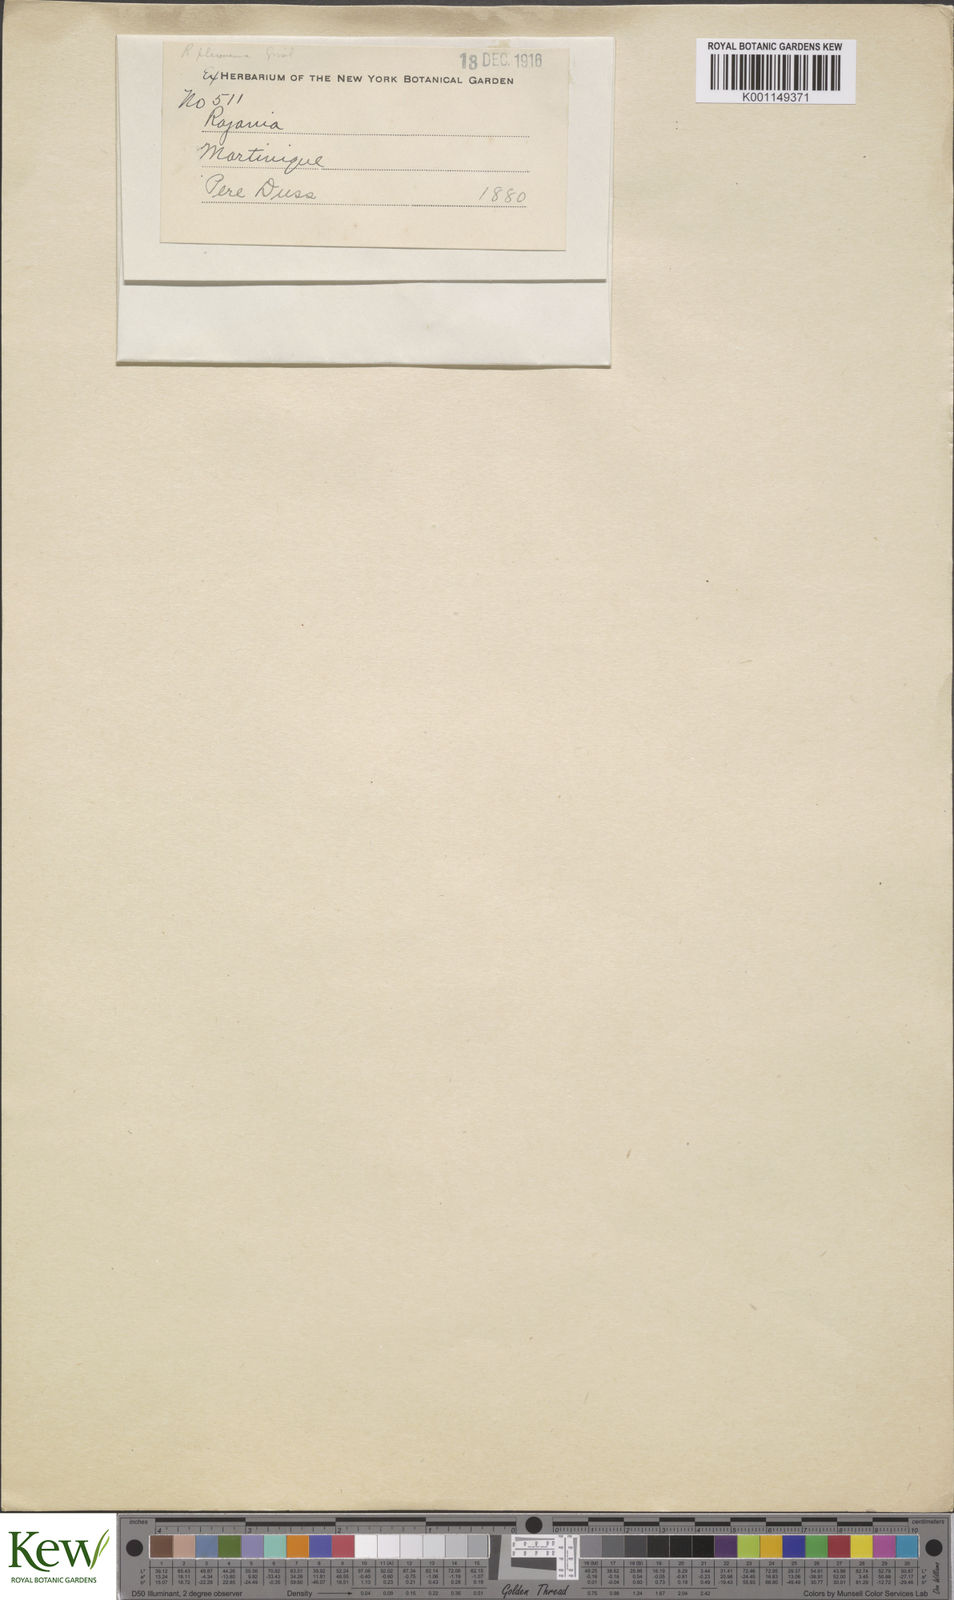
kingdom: Plantae
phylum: Tracheophyta
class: Liliopsida
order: Dioscoreales
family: Dioscoreaceae
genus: Dioscorea
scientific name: Dioscorea
